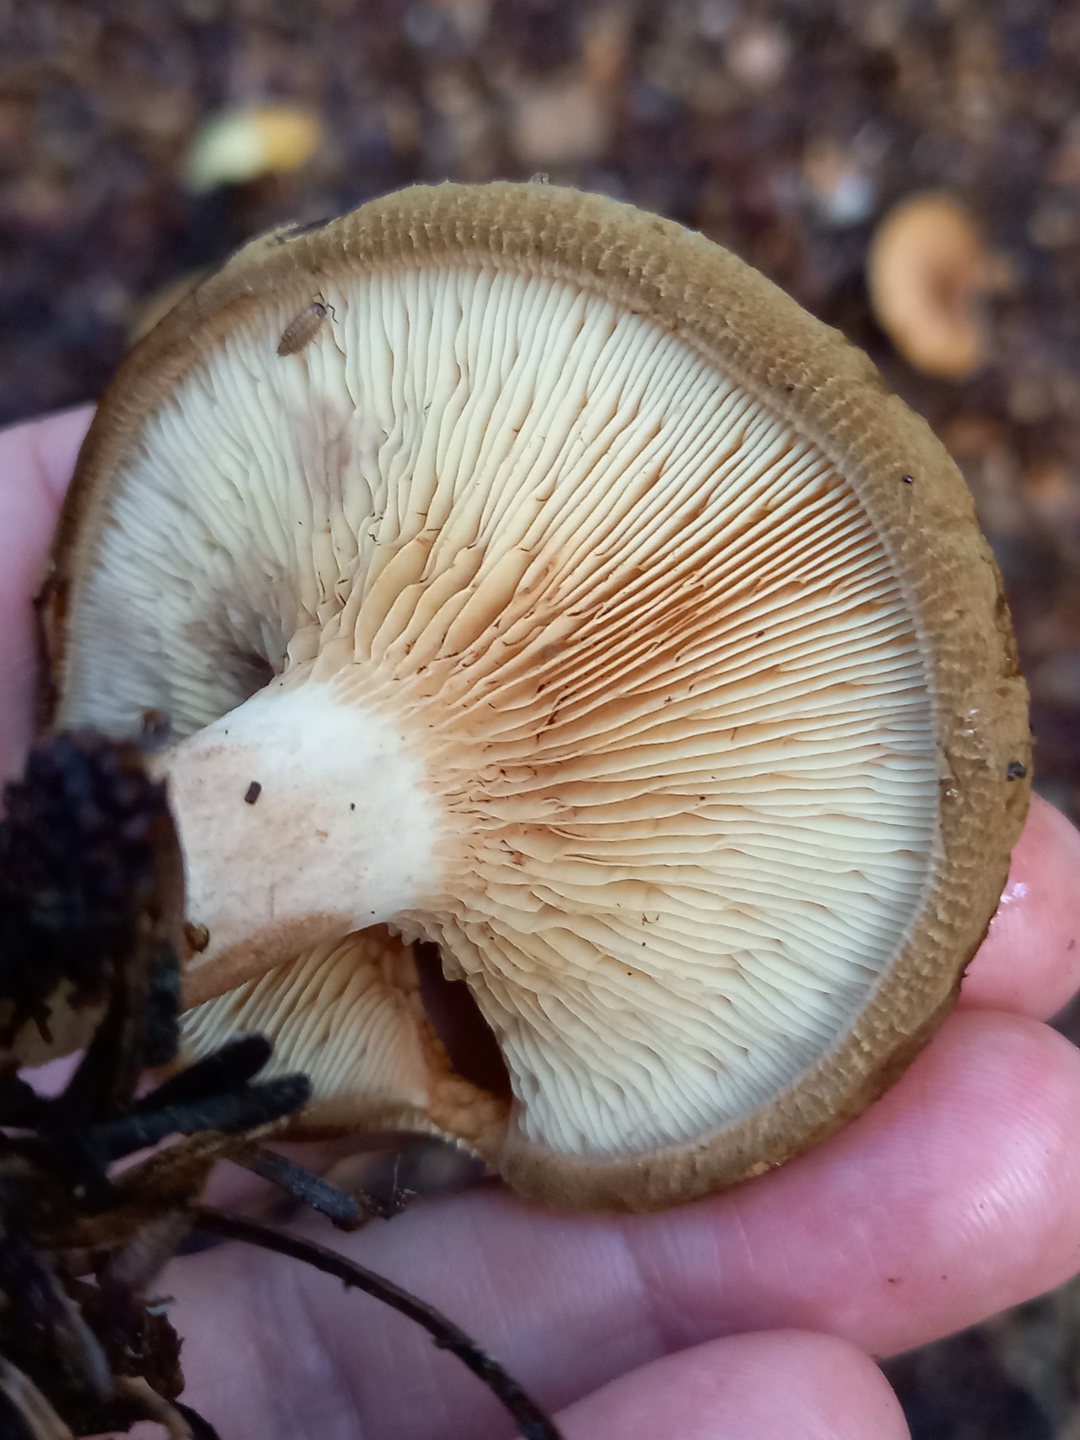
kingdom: Fungi
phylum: Basidiomycota
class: Agaricomycetes
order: Boletales
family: Paxillaceae
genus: Paxillus
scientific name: Paxillus involutus
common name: almindelig netbladhat
